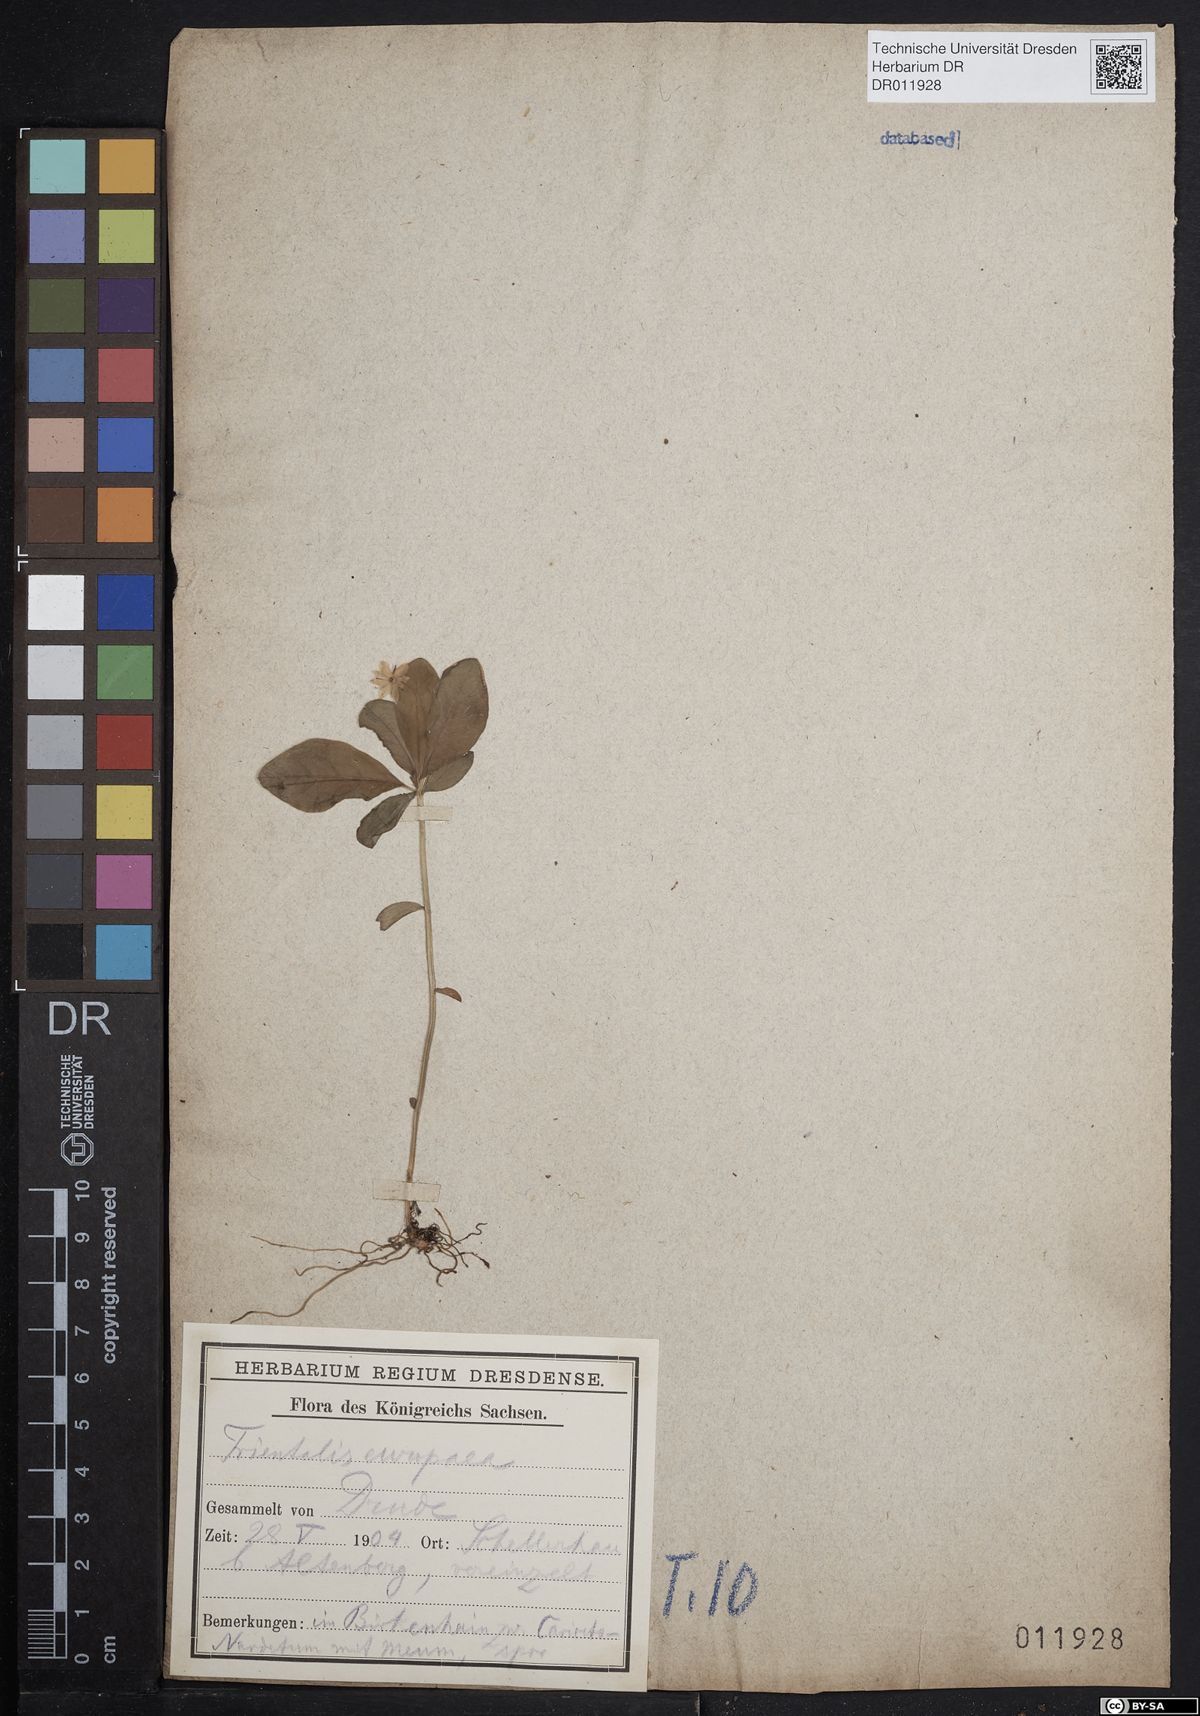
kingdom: Plantae
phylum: Tracheophyta
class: Magnoliopsida
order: Ericales
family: Primulaceae
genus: Lysimachia
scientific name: Lysimachia europaea
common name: Arctic starflower
